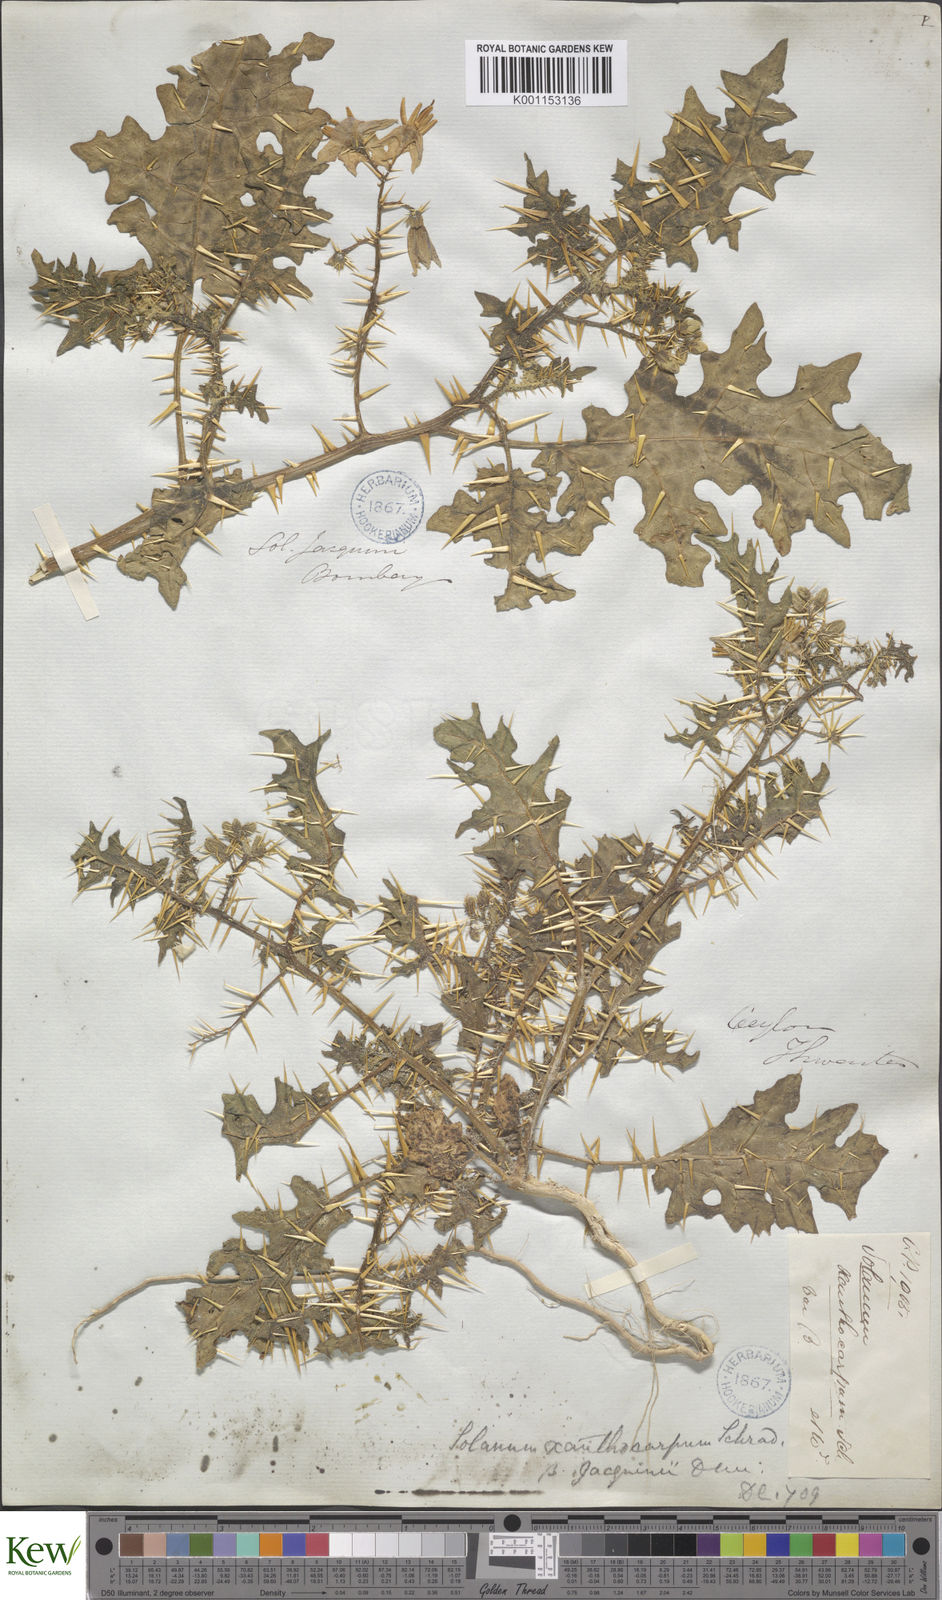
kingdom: Plantae
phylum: Tracheophyta
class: Magnoliopsida
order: Solanales
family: Solanaceae
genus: Solanum
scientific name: Solanum virginianum
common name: Surattense nightshade
